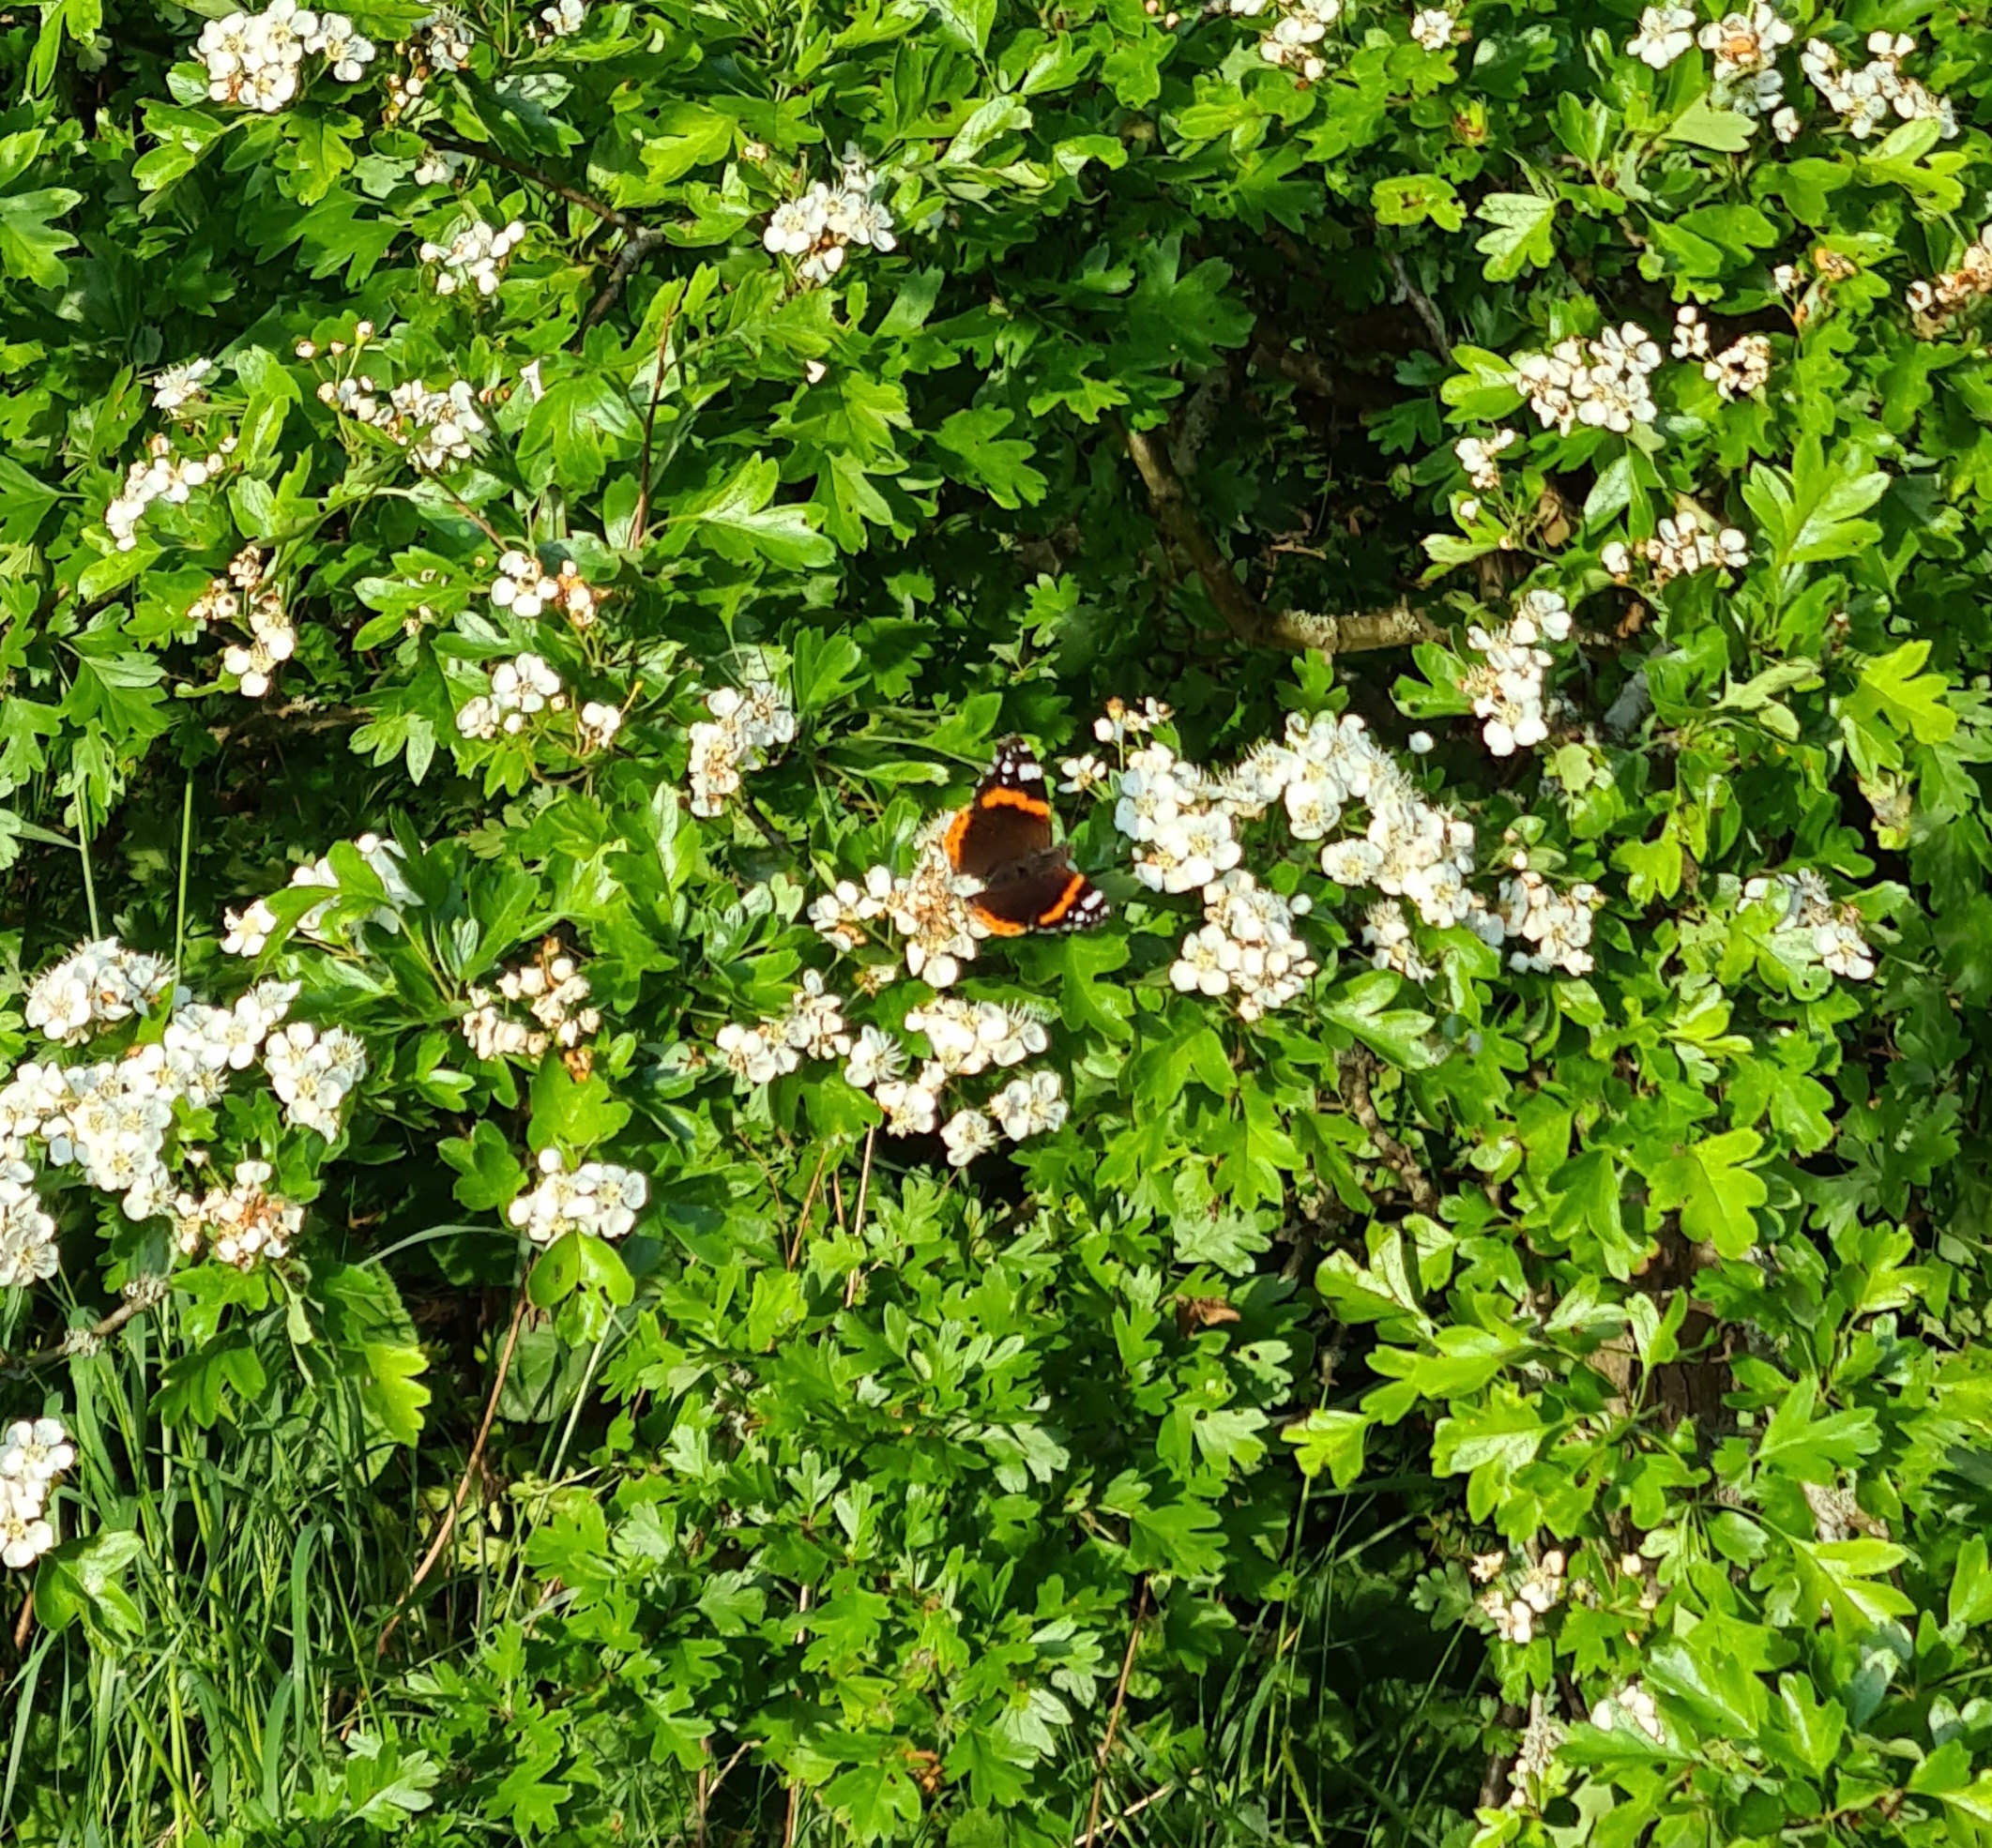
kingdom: Animalia
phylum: Arthropoda
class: Insecta
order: Lepidoptera
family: Nymphalidae
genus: Vanessa
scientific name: Vanessa atalanta
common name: Admiral
